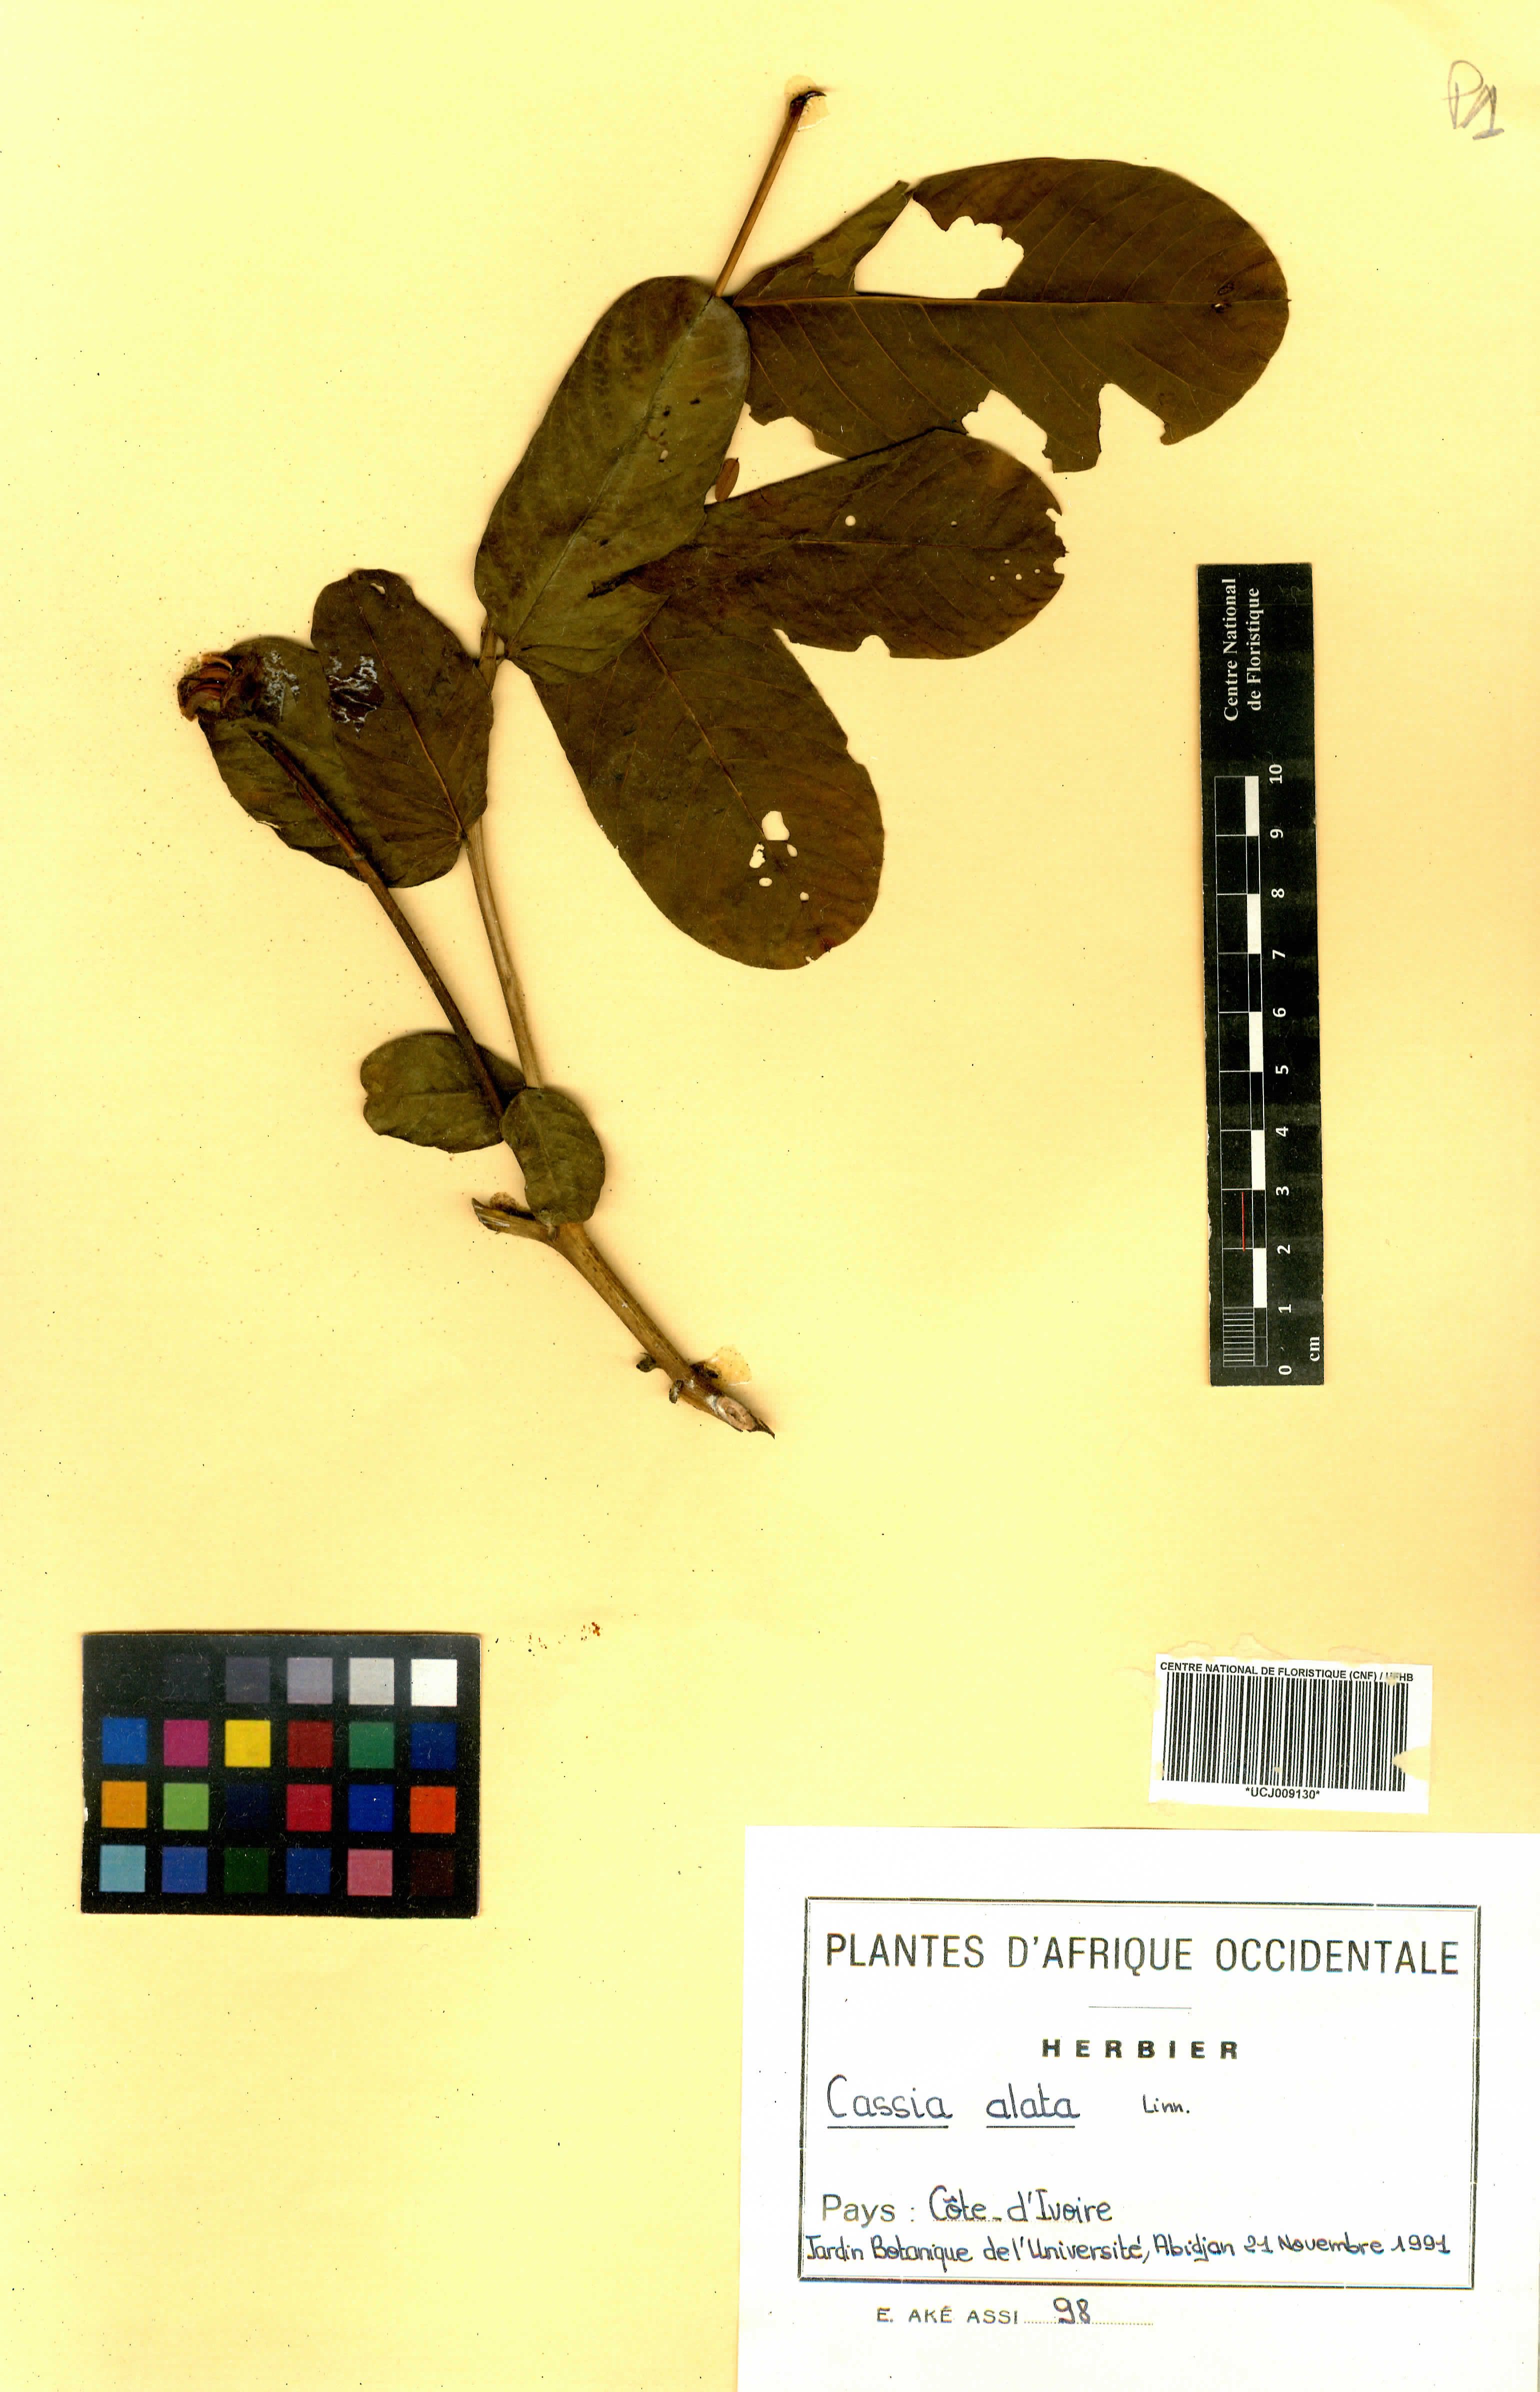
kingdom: Plantae
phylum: Tracheophyta
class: Magnoliopsida
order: Fabales
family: Fabaceae
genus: Senna
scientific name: Senna alata
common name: Emperor's candlesticks
